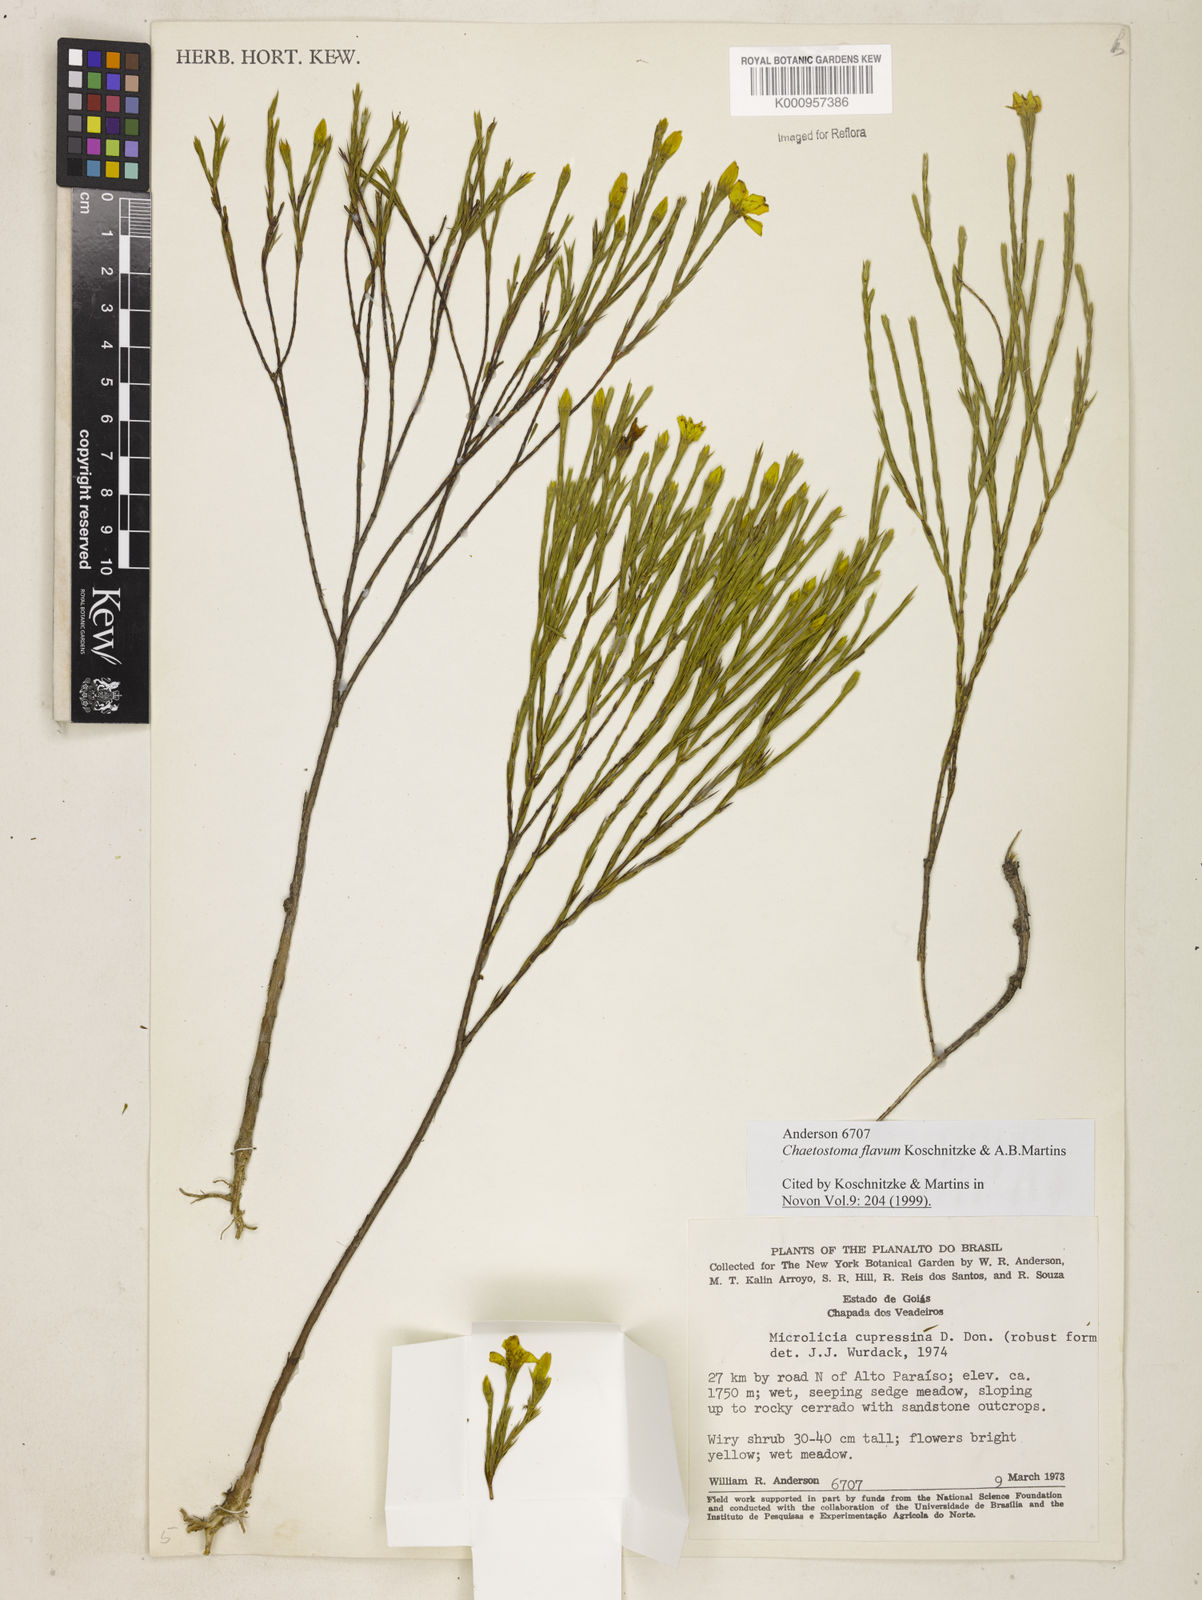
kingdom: Plantae
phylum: Tracheophyta
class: Magnoliopsida
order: Myrtales
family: Melastomataceae
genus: Microlicia
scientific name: Microlicia flavipetala
